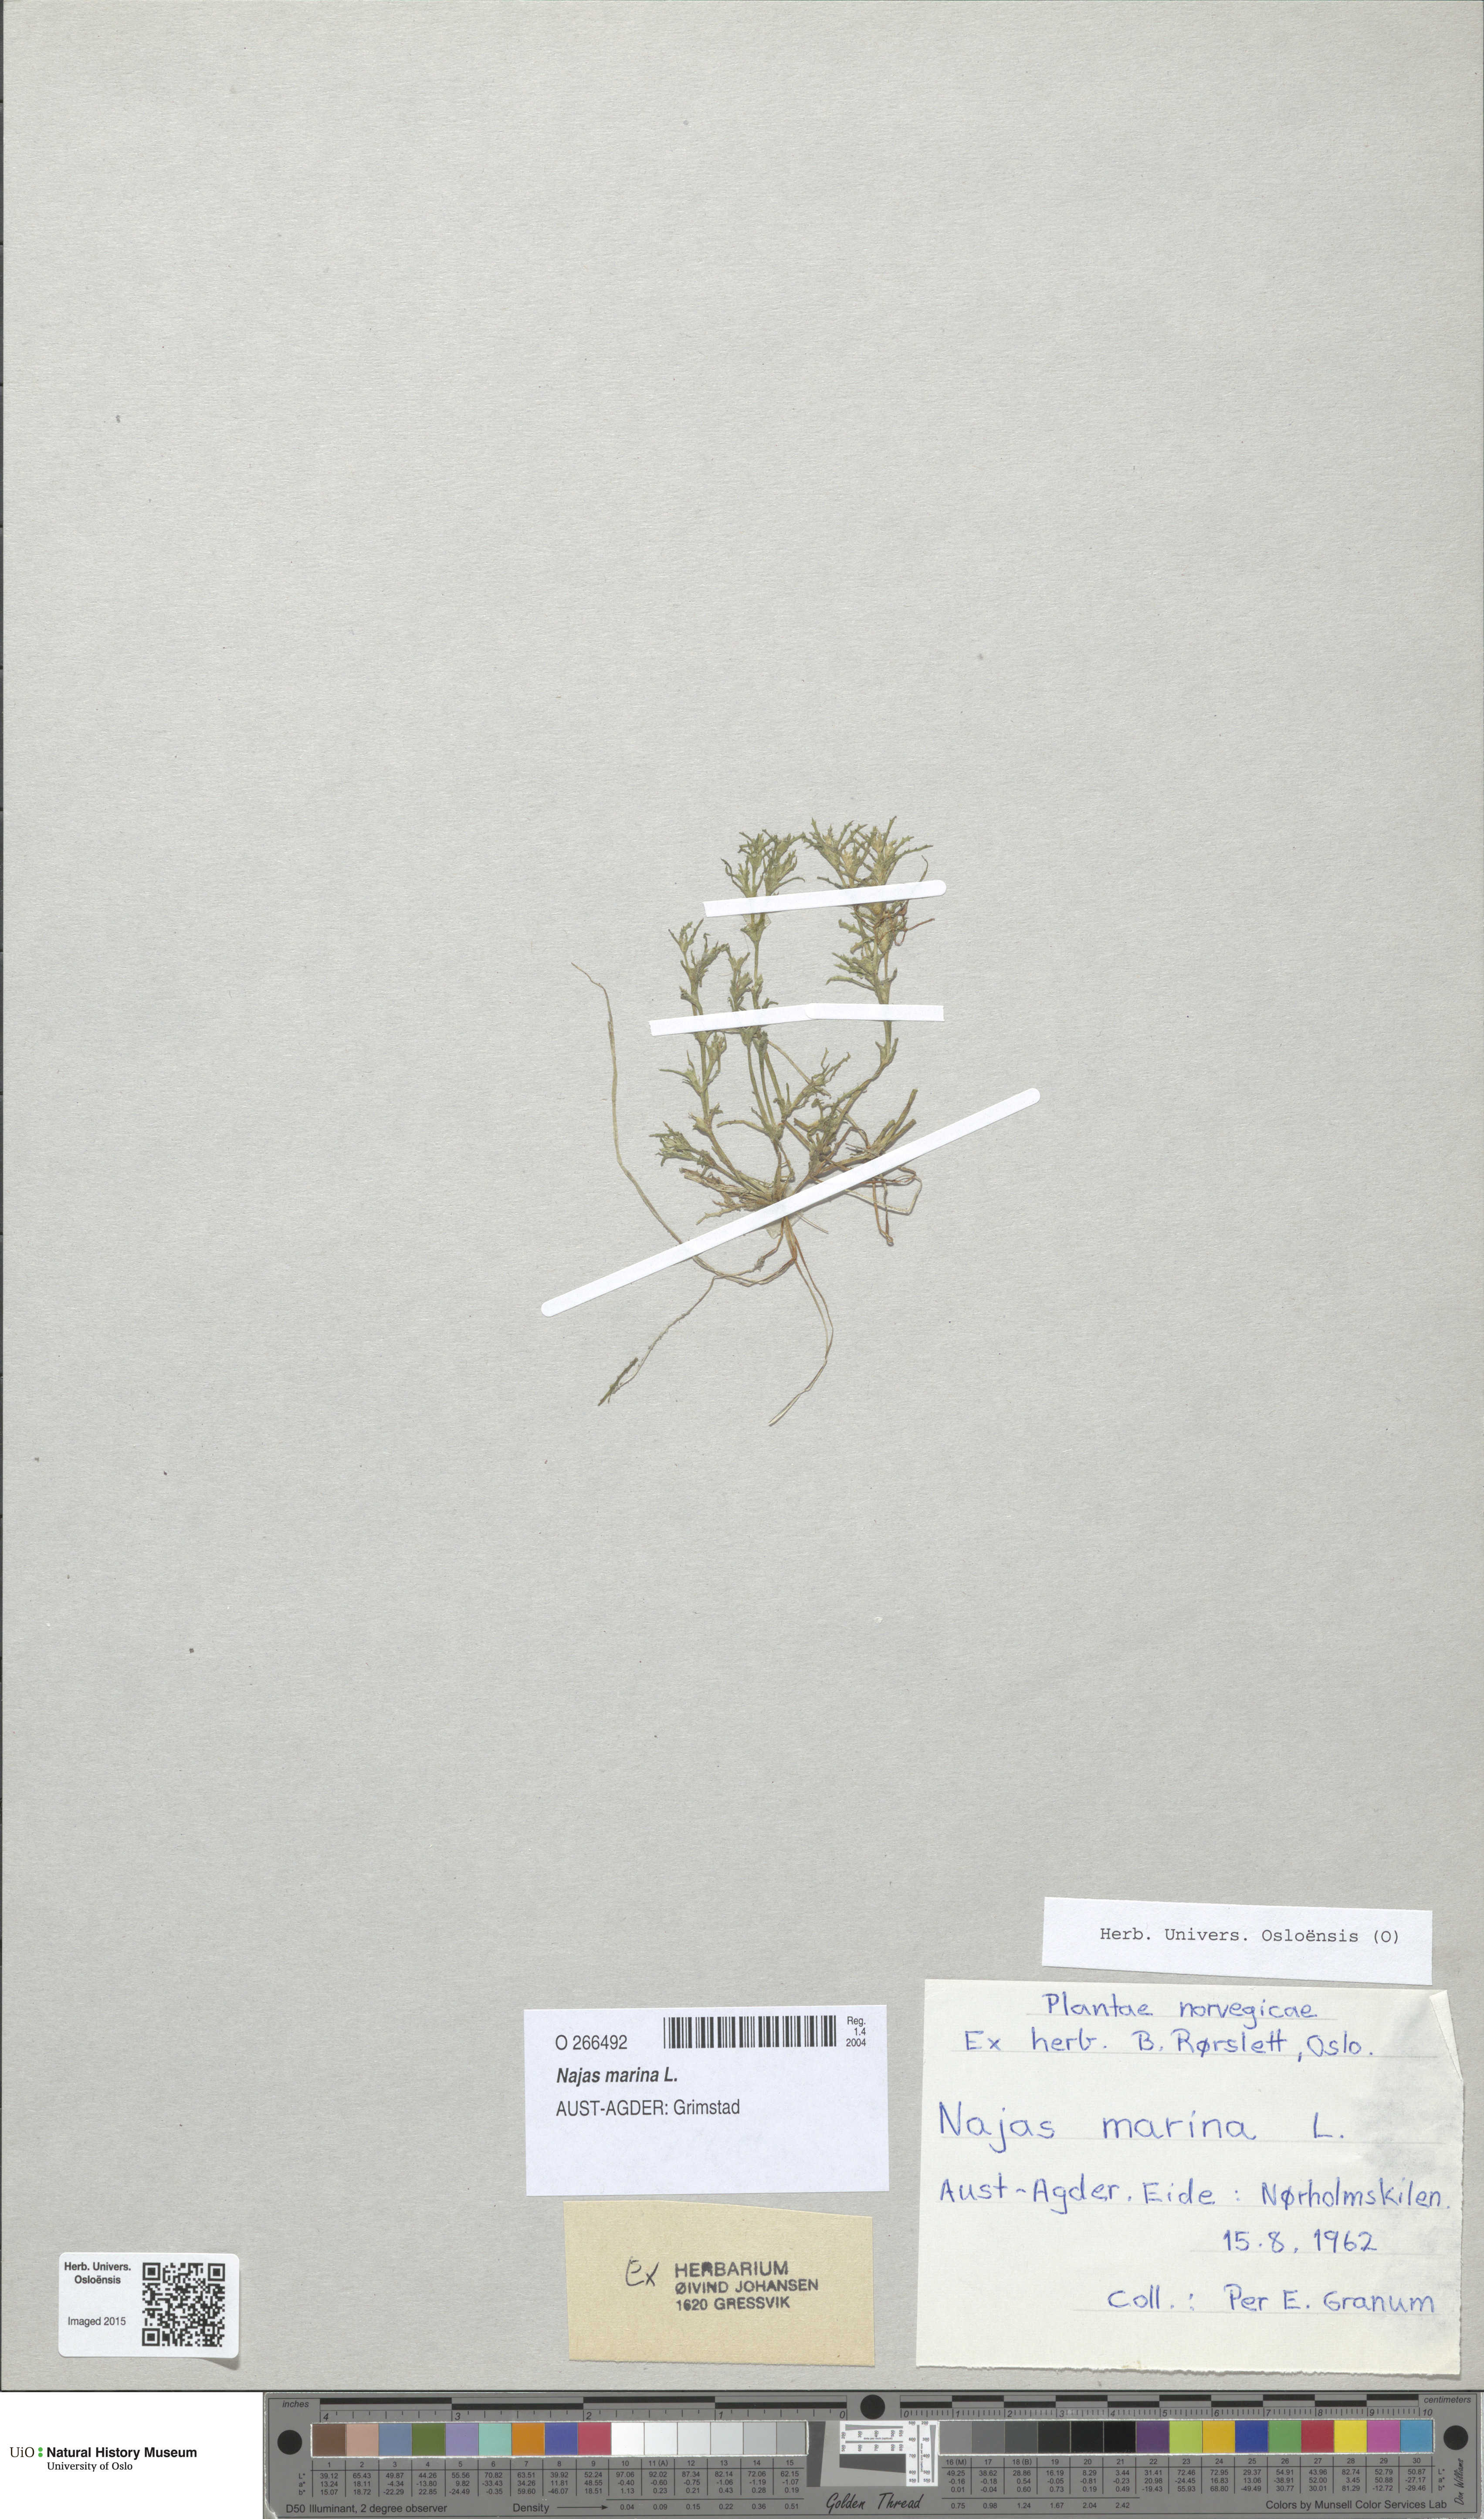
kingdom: Plantae
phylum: Tracheophyta
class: Liliopsida
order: Alismatales
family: Hydrocharitaceae
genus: Najas
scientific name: Najas marina
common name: Holly-leaved naiad
